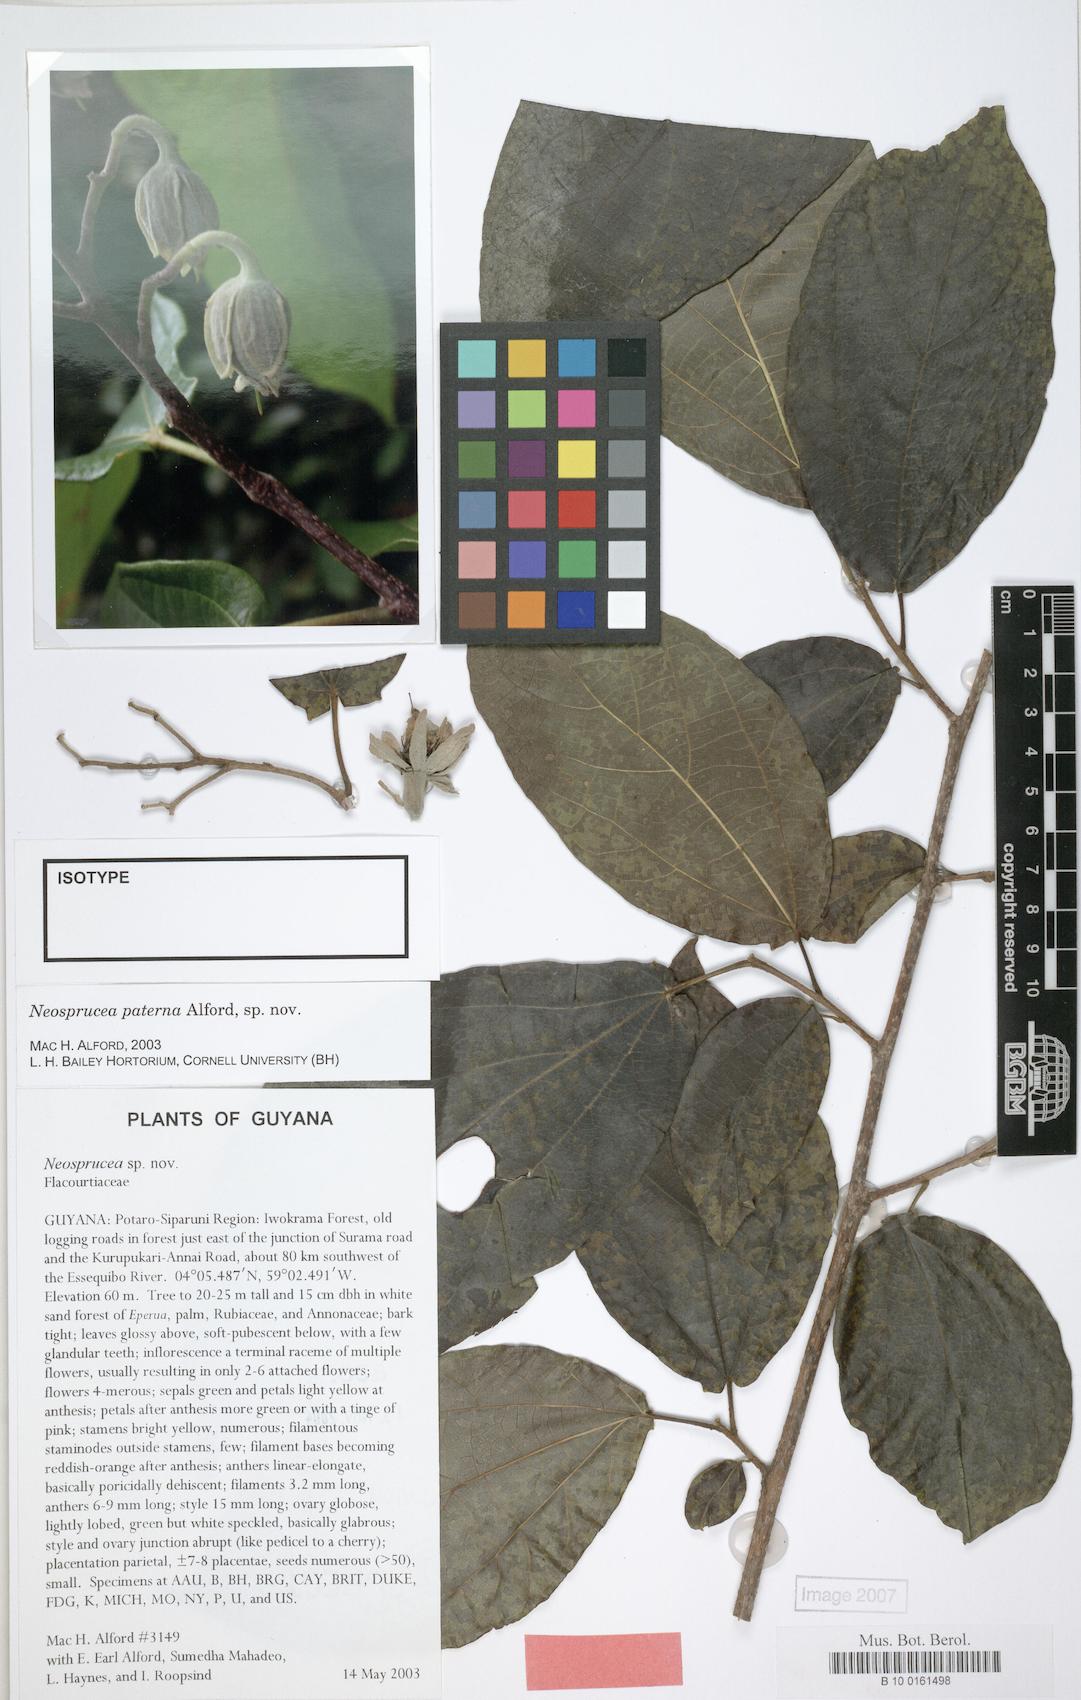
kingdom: Plantae
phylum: Tracheophyta
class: Magnoliopsida
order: Malpighiales
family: Salicaceae
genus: Neosprucea
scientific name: Neosprucea paterna
